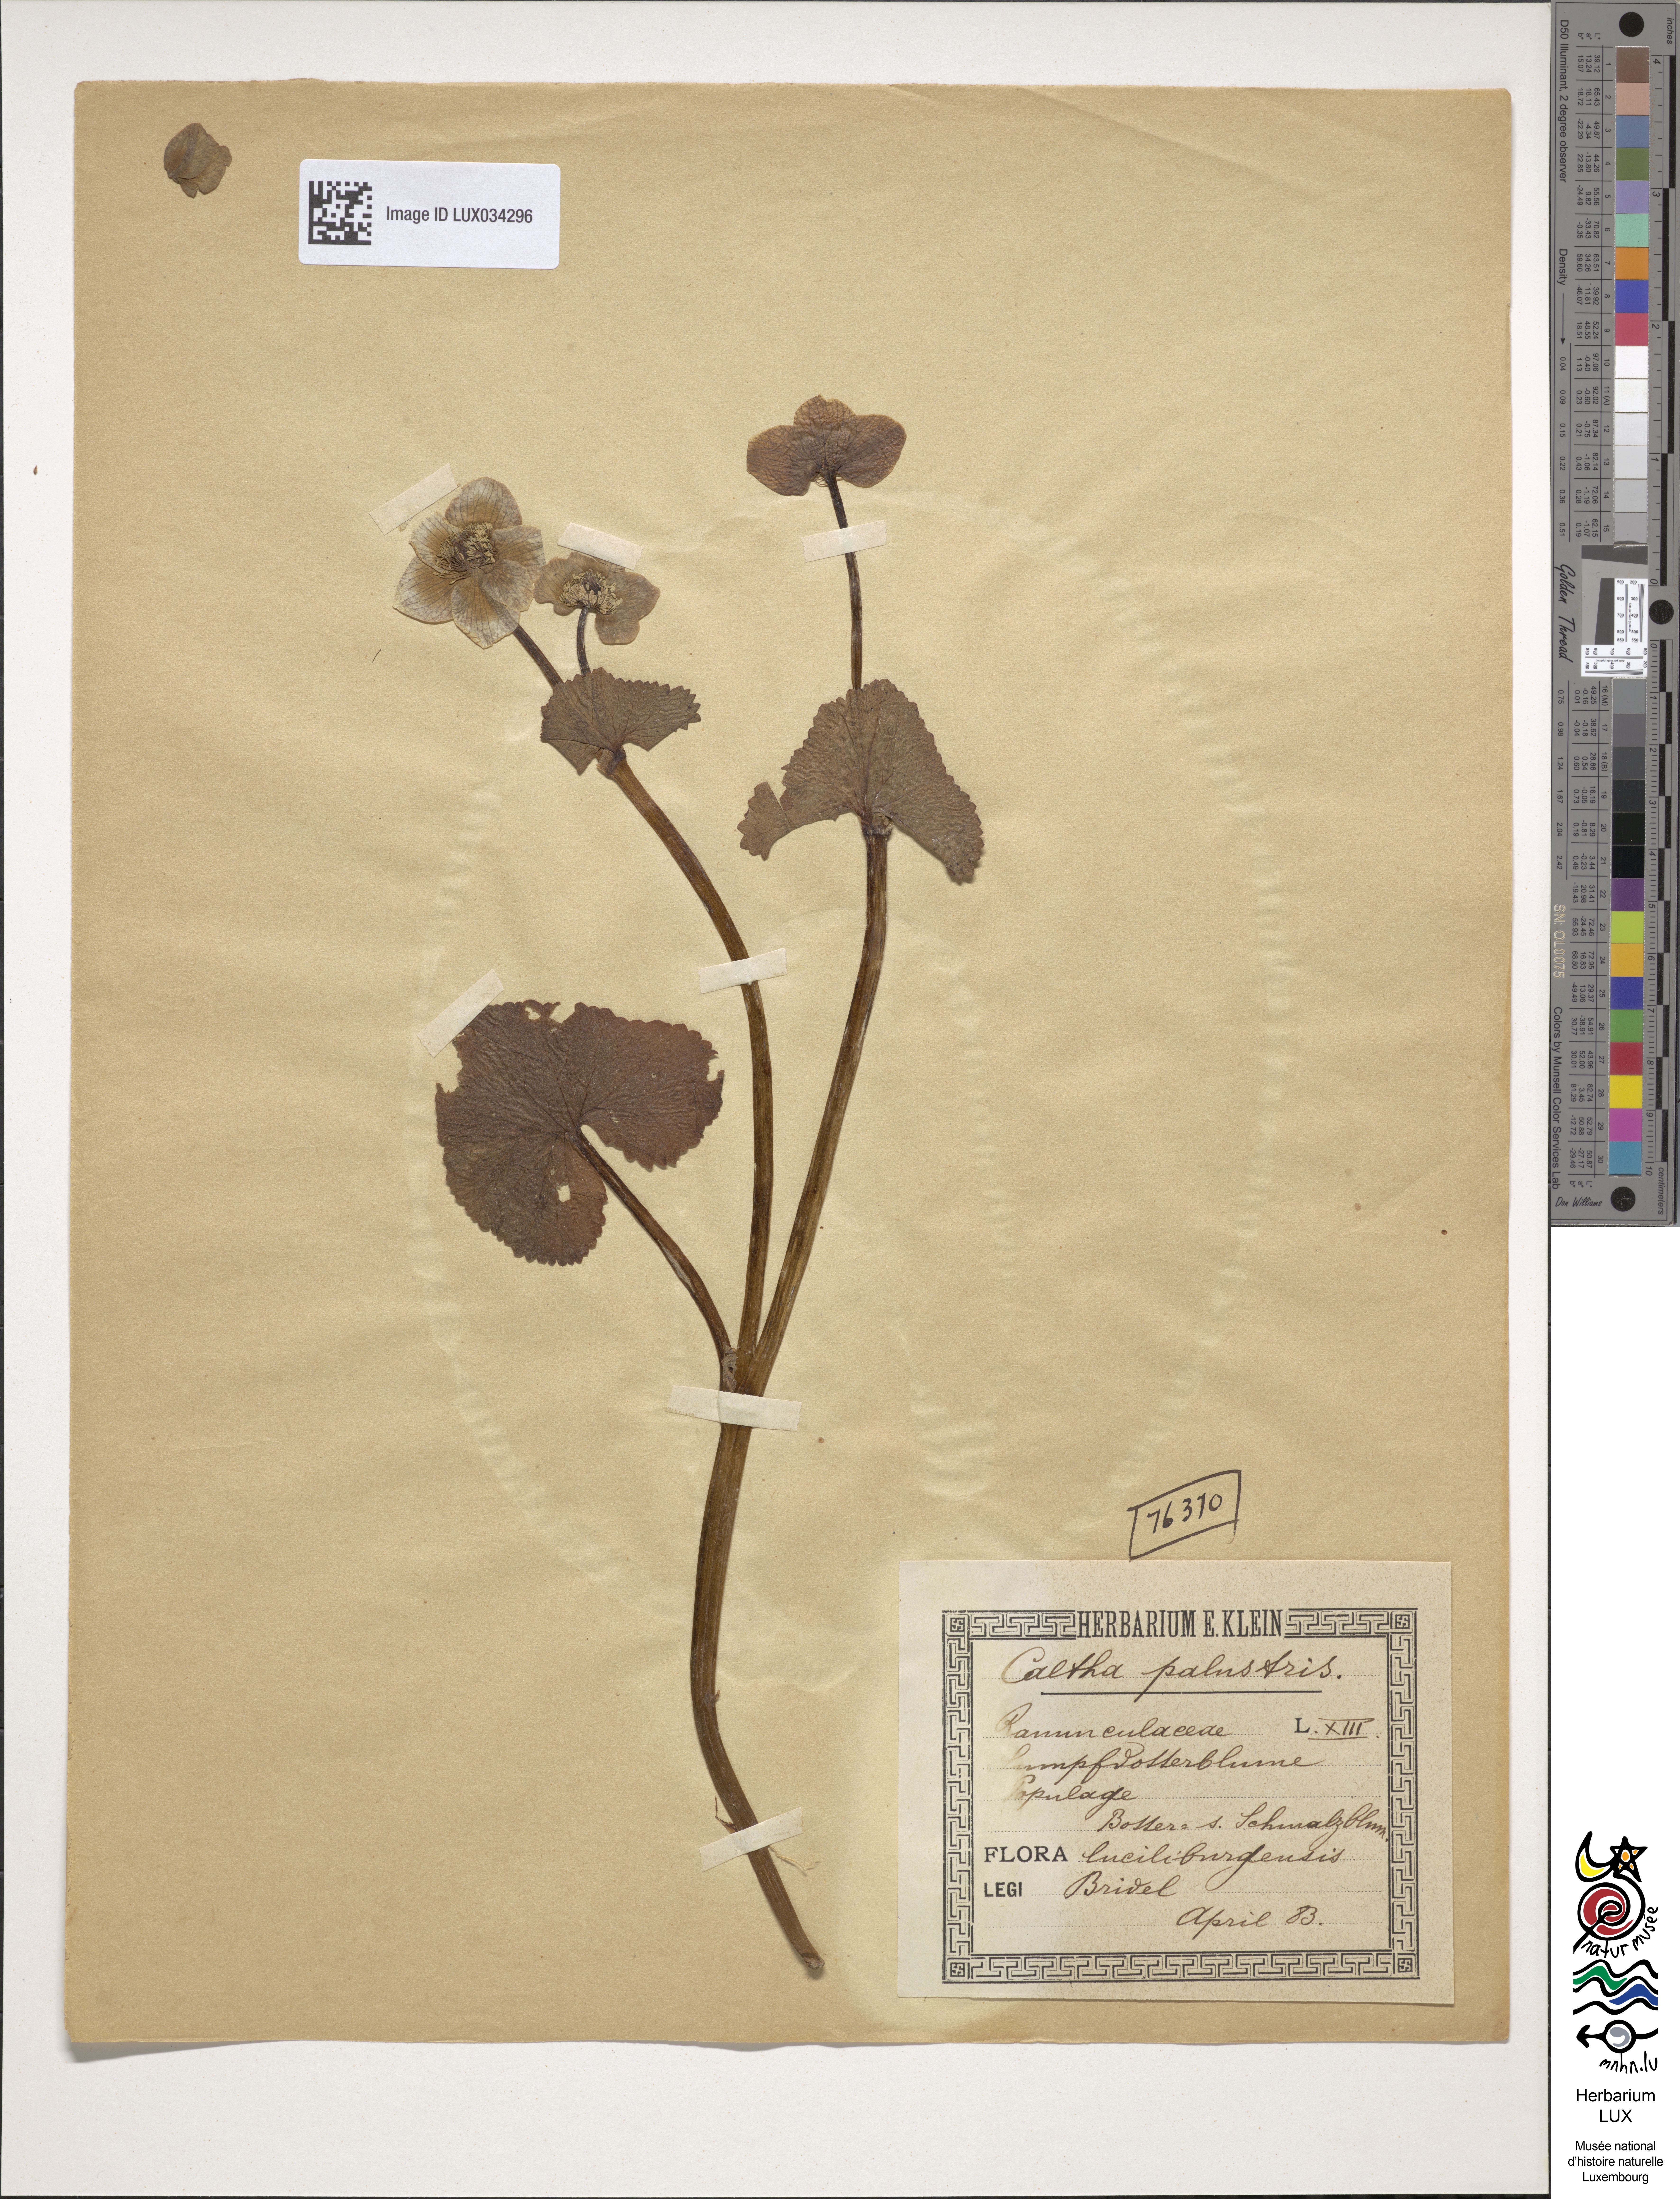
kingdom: Plantae
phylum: Tracheophyta
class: Magnoliopsida
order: Ranunculales
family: Ranunculaceae
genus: Caltha
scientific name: Caltha palustris
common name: Marsh marigold
